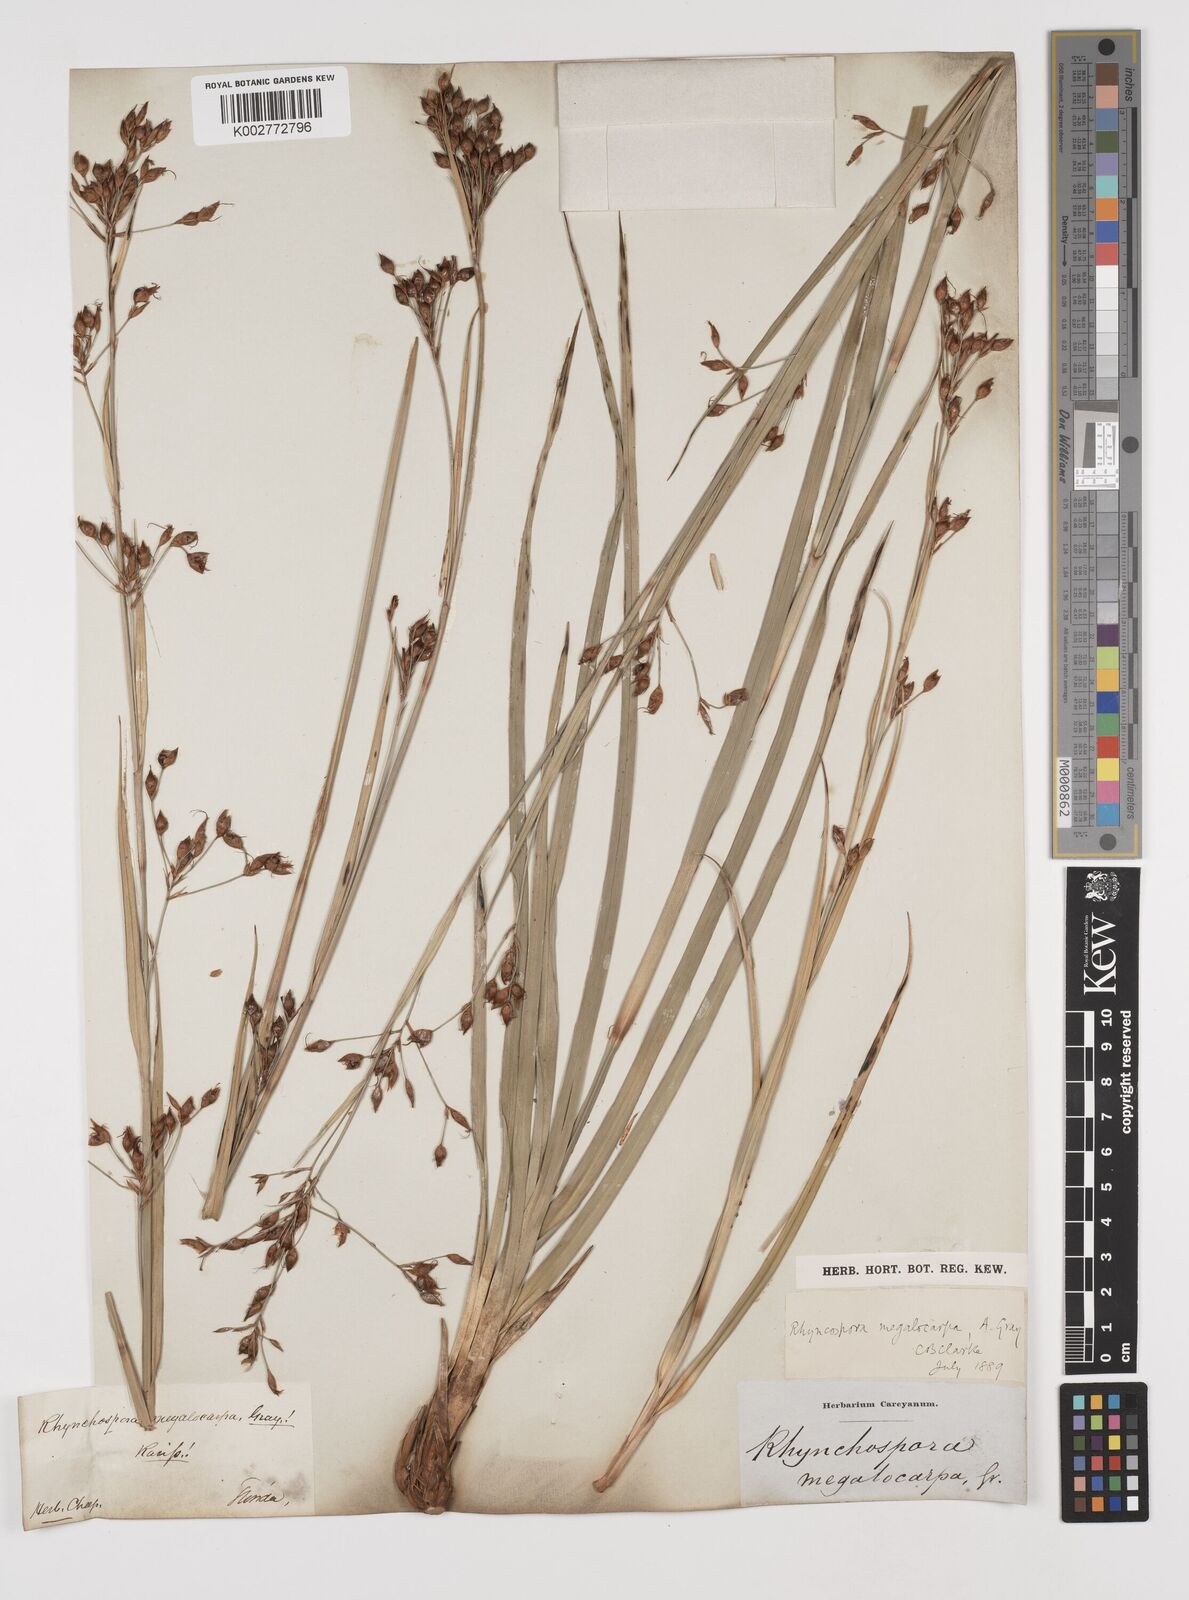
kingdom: Plantae
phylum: Tracheophyta
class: Liliopsida
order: Poales
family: Cyperaceae
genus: Rhynchospora
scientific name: Rhynchospora megalocarpa
